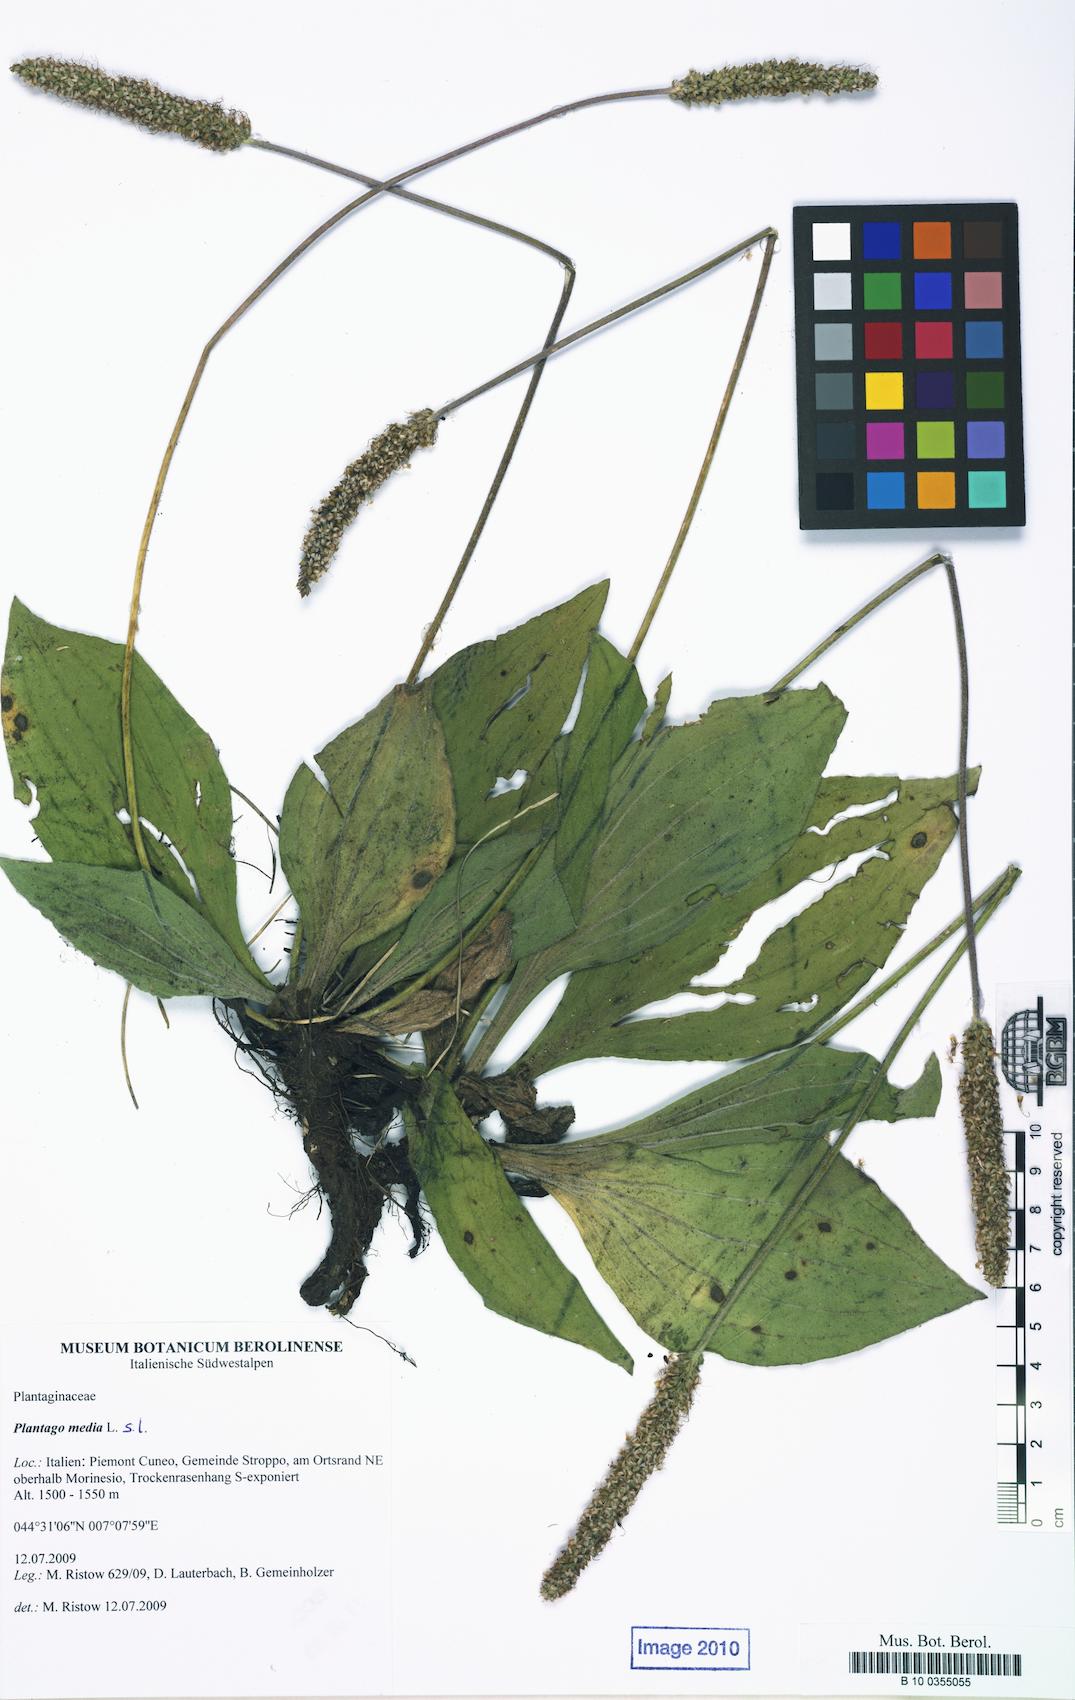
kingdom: Plantae
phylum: Tracheophyta
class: Magnoliopsida
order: Lamiales
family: Plantaginaceae
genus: Plantago
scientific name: Plantago media
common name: Hoary plantain
